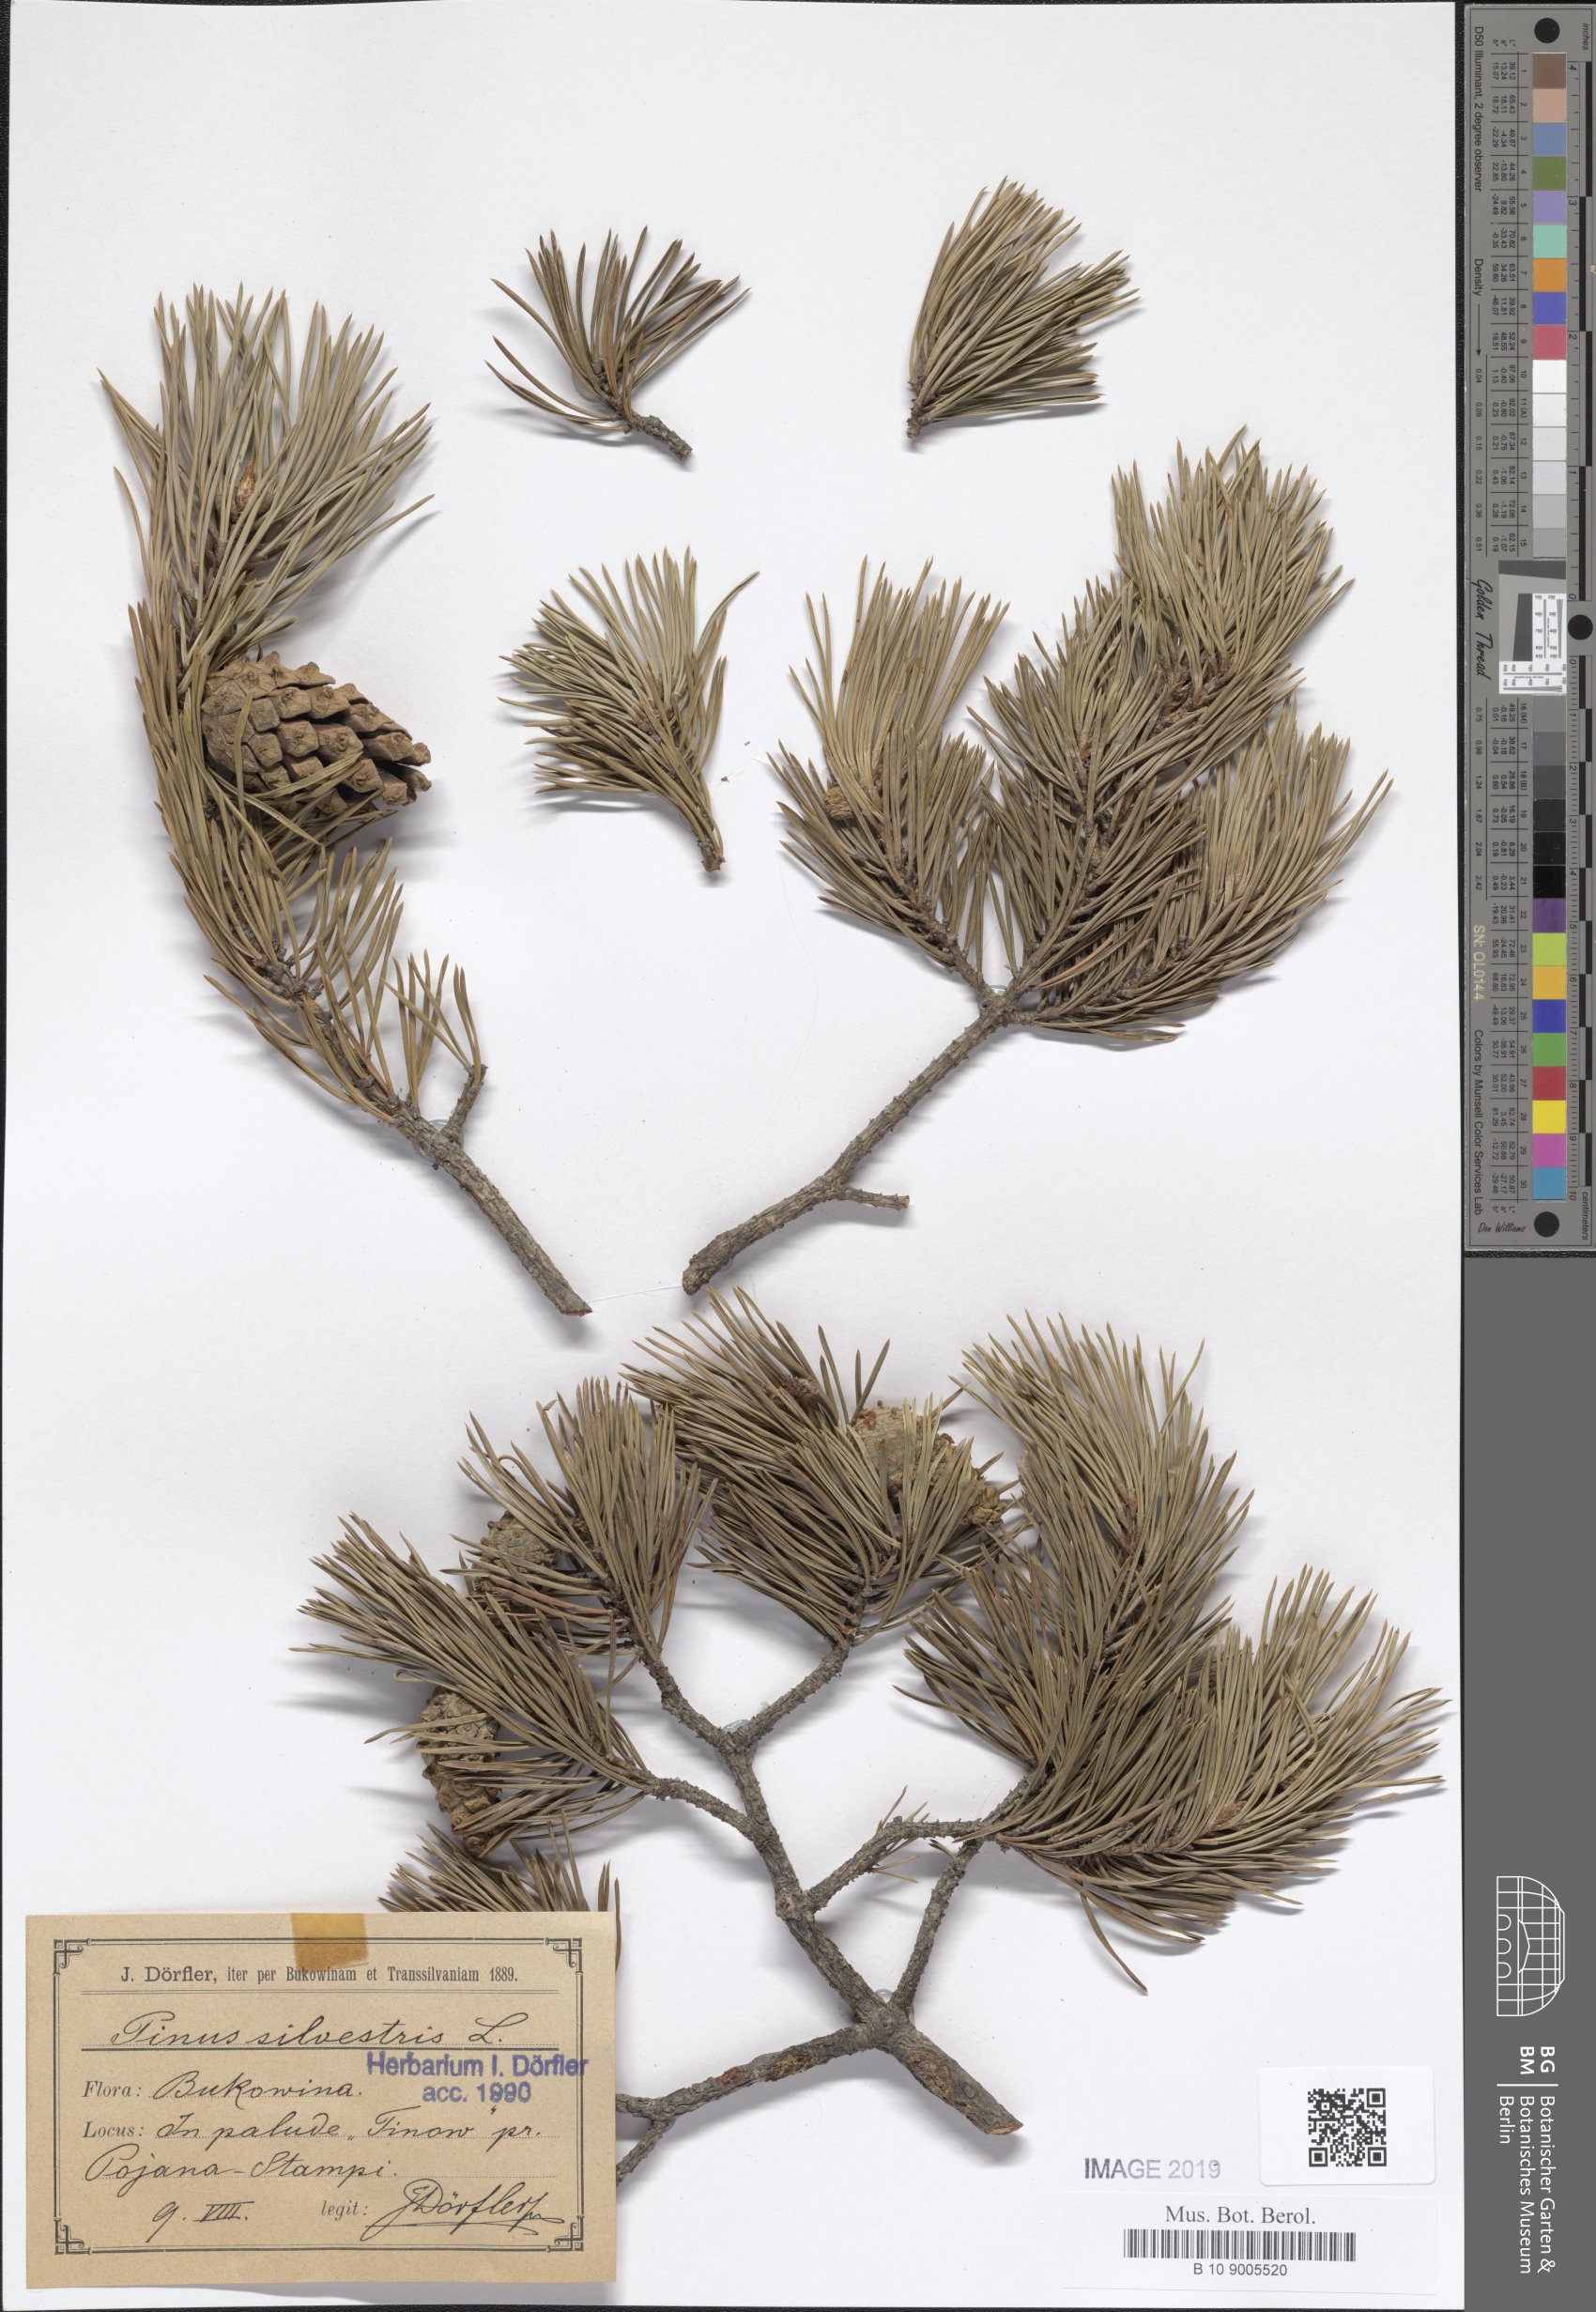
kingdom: Plantae
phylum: Tracheophyta
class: Pinopsida
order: Pinales
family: Pinaceae
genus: Pinus
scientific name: Pinus sylvestris
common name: Scots pine
